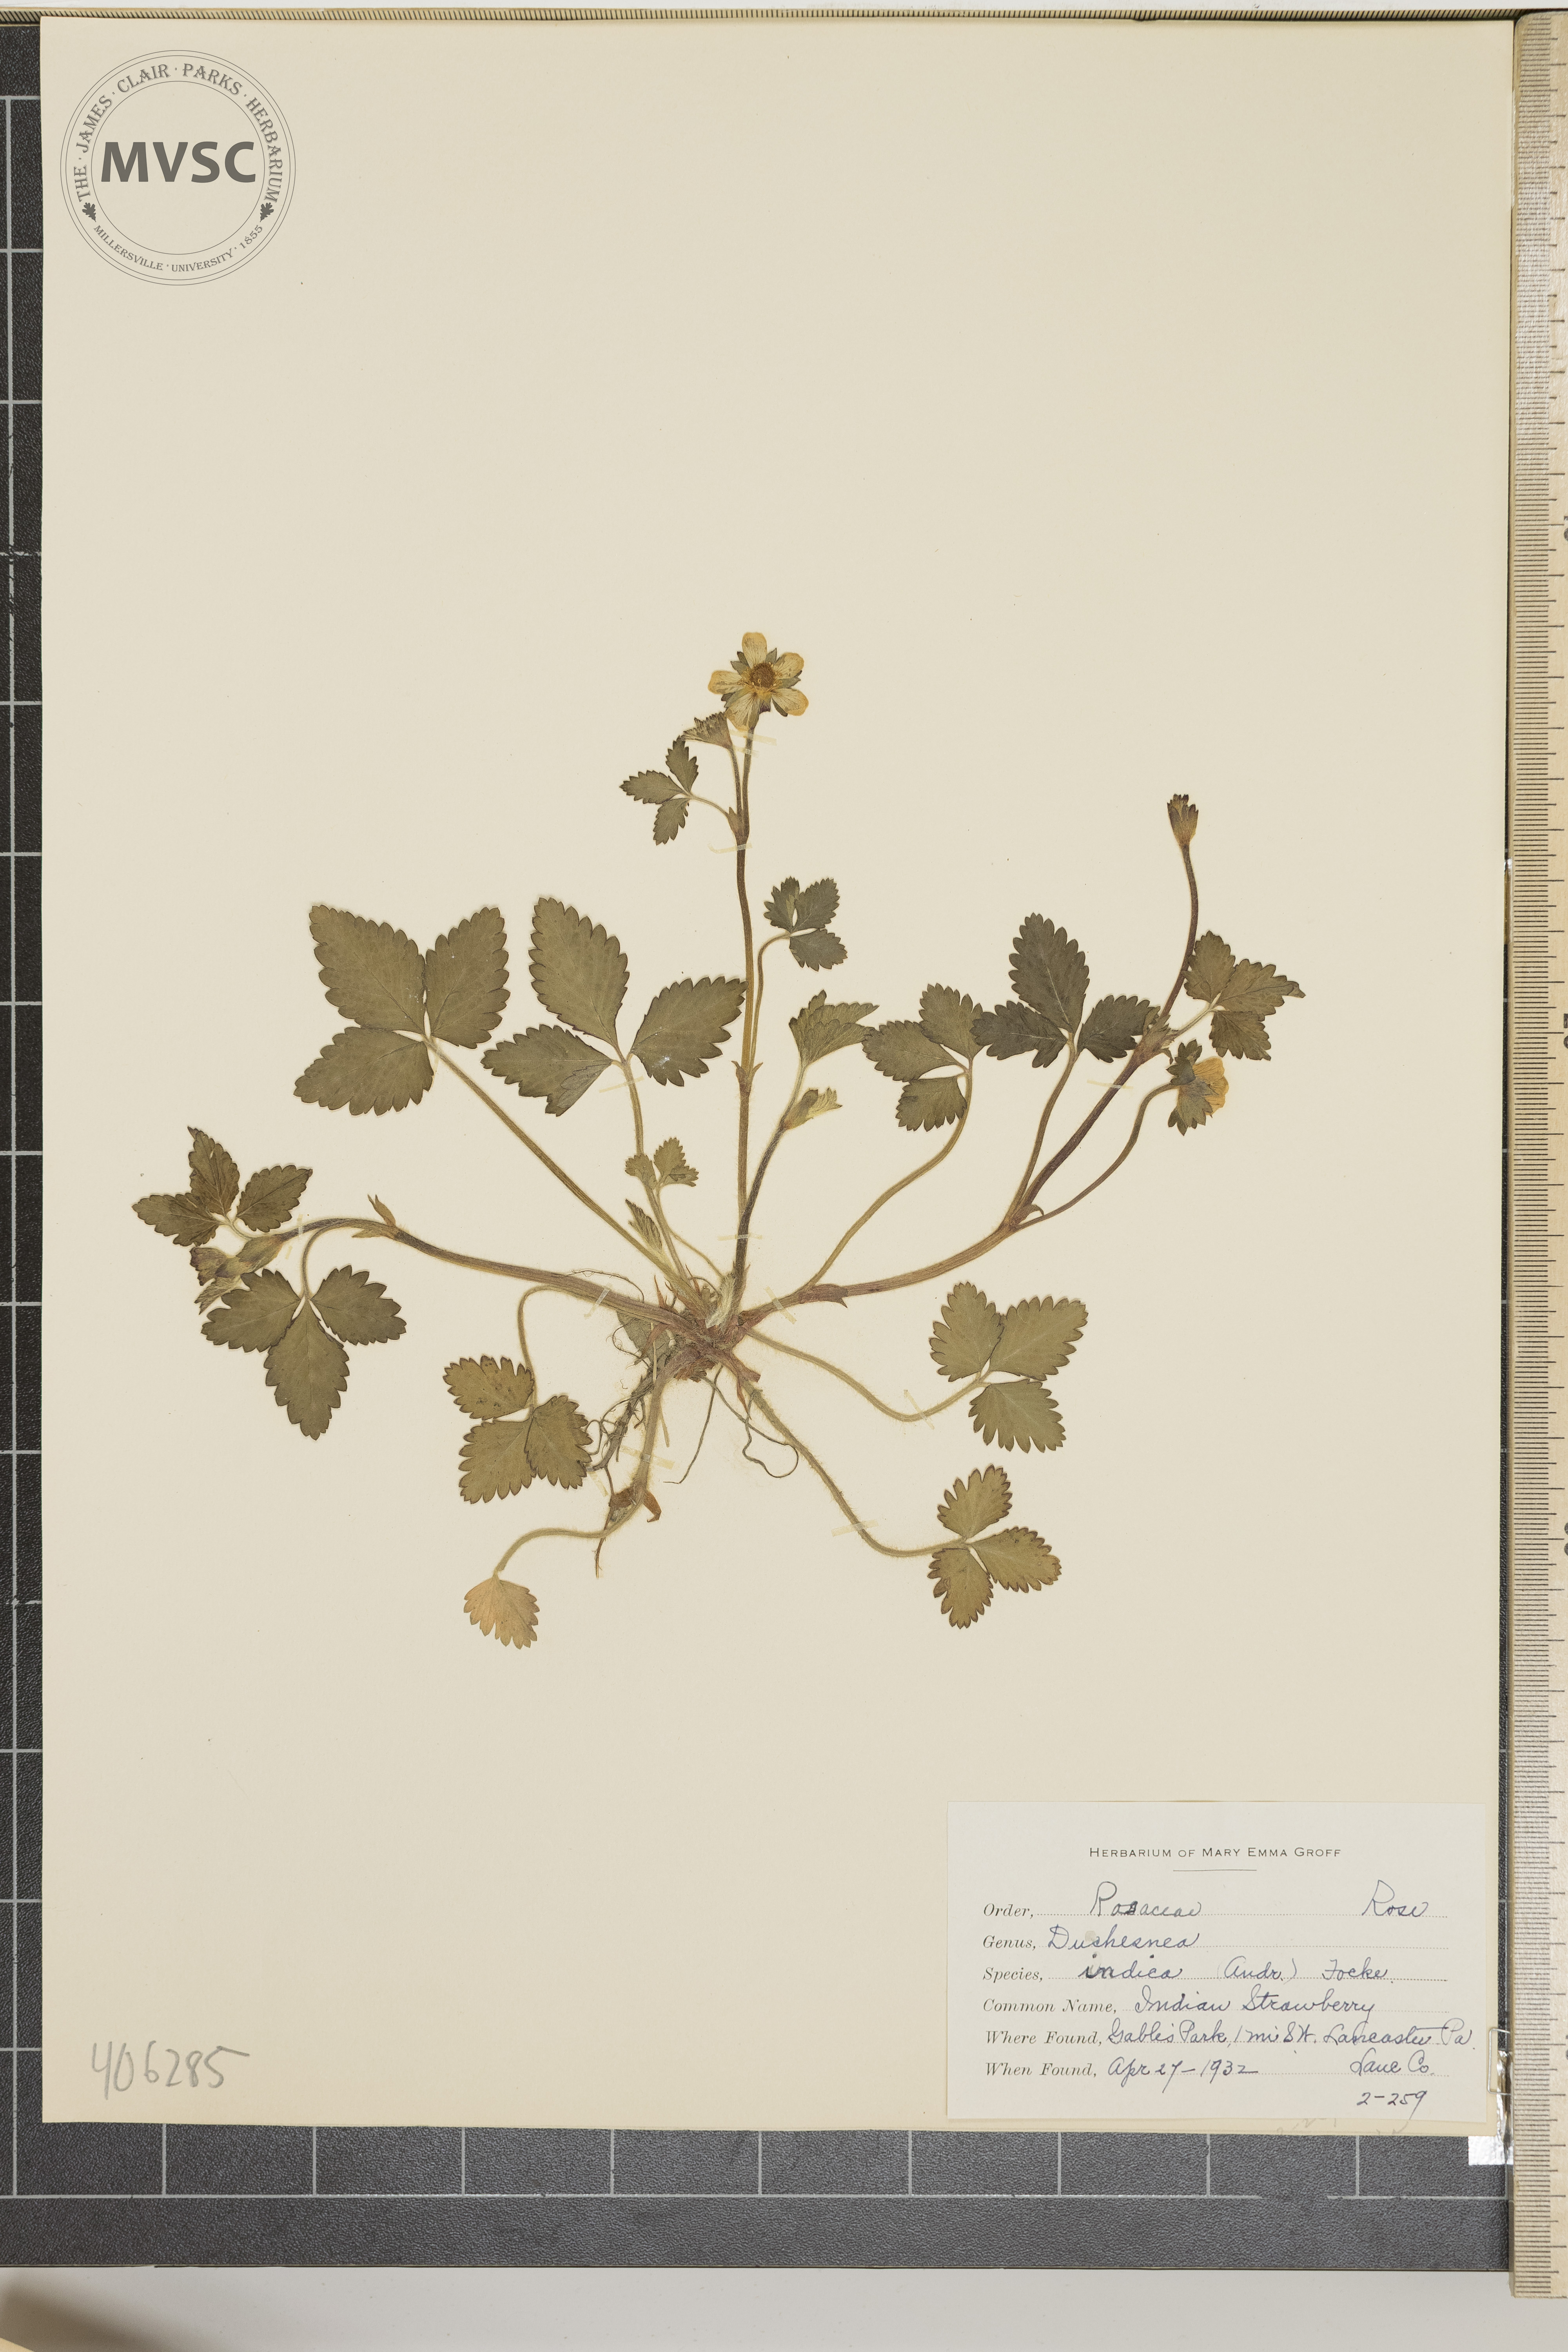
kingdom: Plantae
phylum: Tracheophyta
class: Magnoliopsida
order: Rosales
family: Rosaceae
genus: Potentilla
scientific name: Potentilla indica
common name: Indian Strawberry
